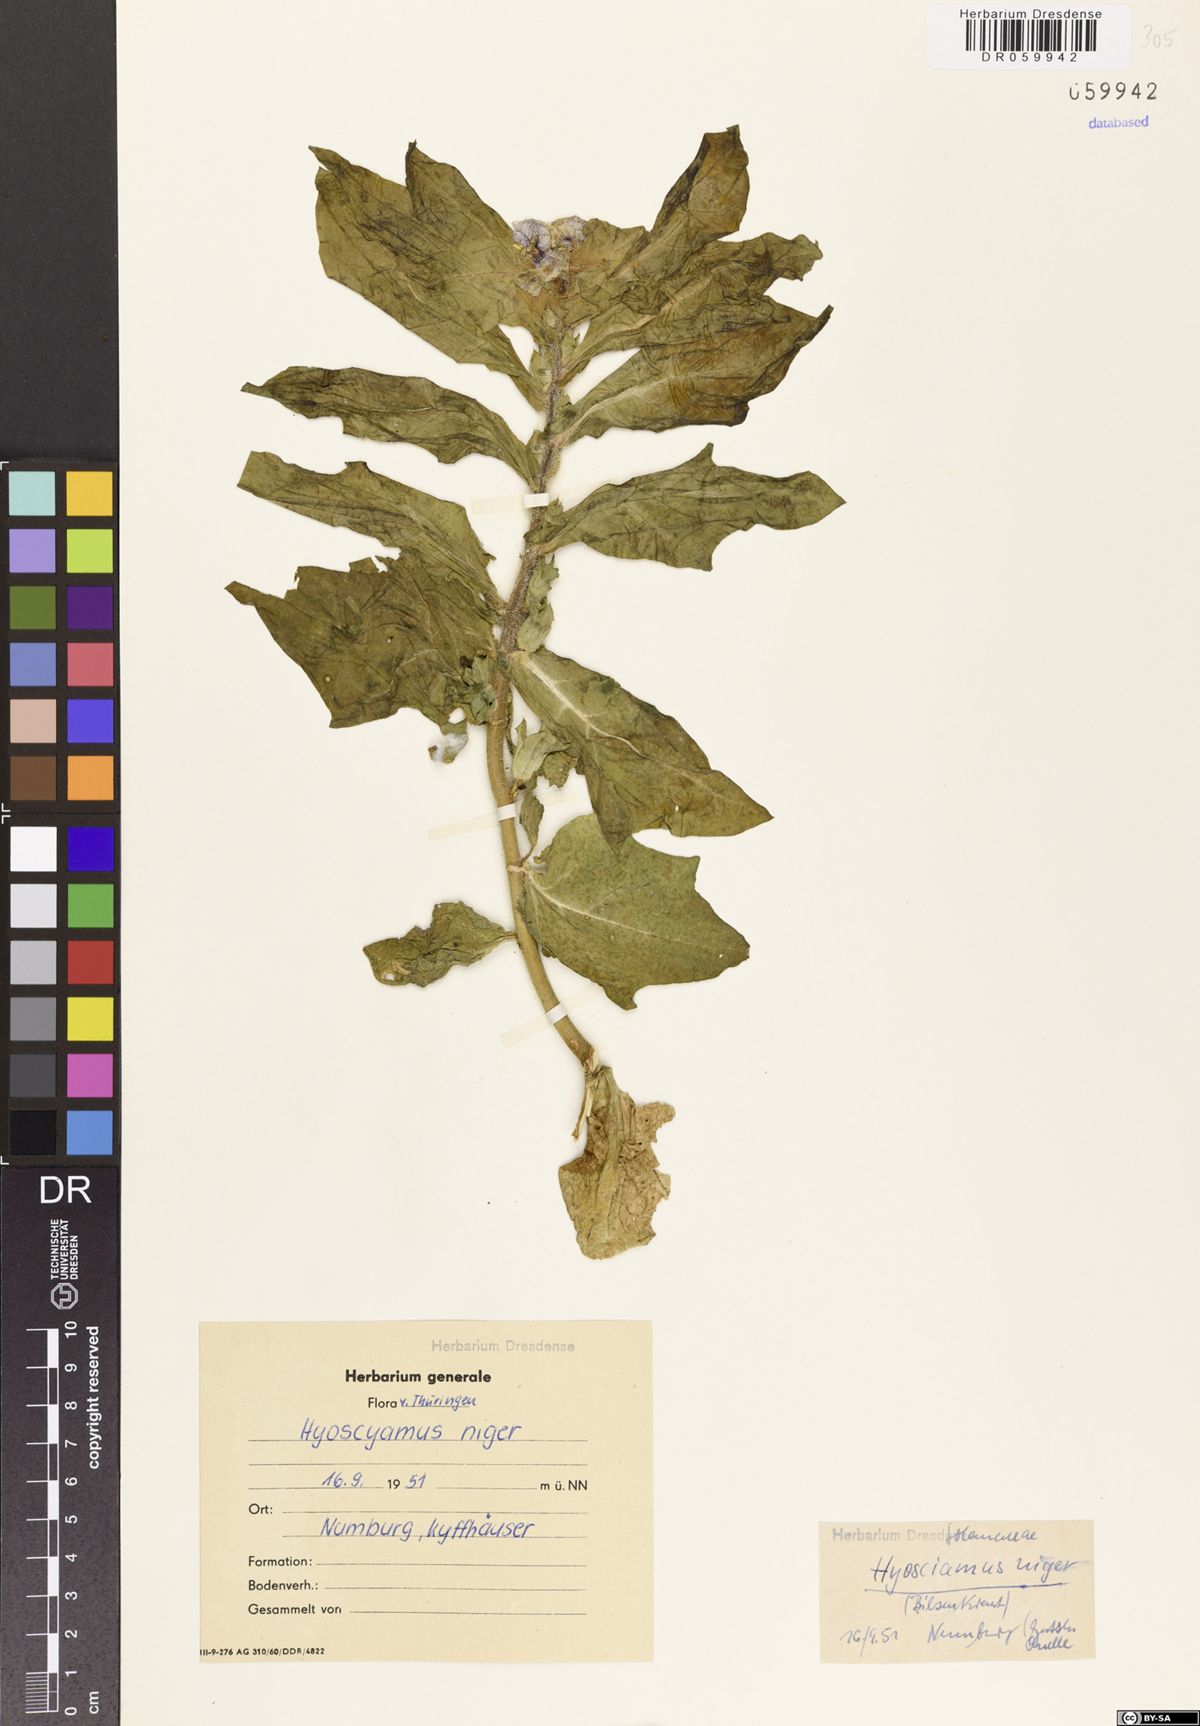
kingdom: Plantae
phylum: Tracheophyta
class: Magnoliopsida
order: Solanales
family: Solanaceae
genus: Hyoscyamus
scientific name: Hyoscyamus niger
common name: Henbane
